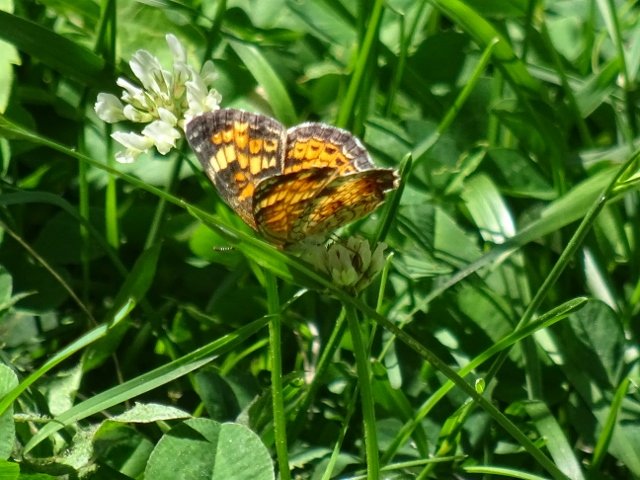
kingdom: Animalia
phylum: Arthropoda
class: Insecta
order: Lepidoptera
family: Nymphalidae
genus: Phyciodes
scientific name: Phyciodes tharos
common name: Pearl Crescent
